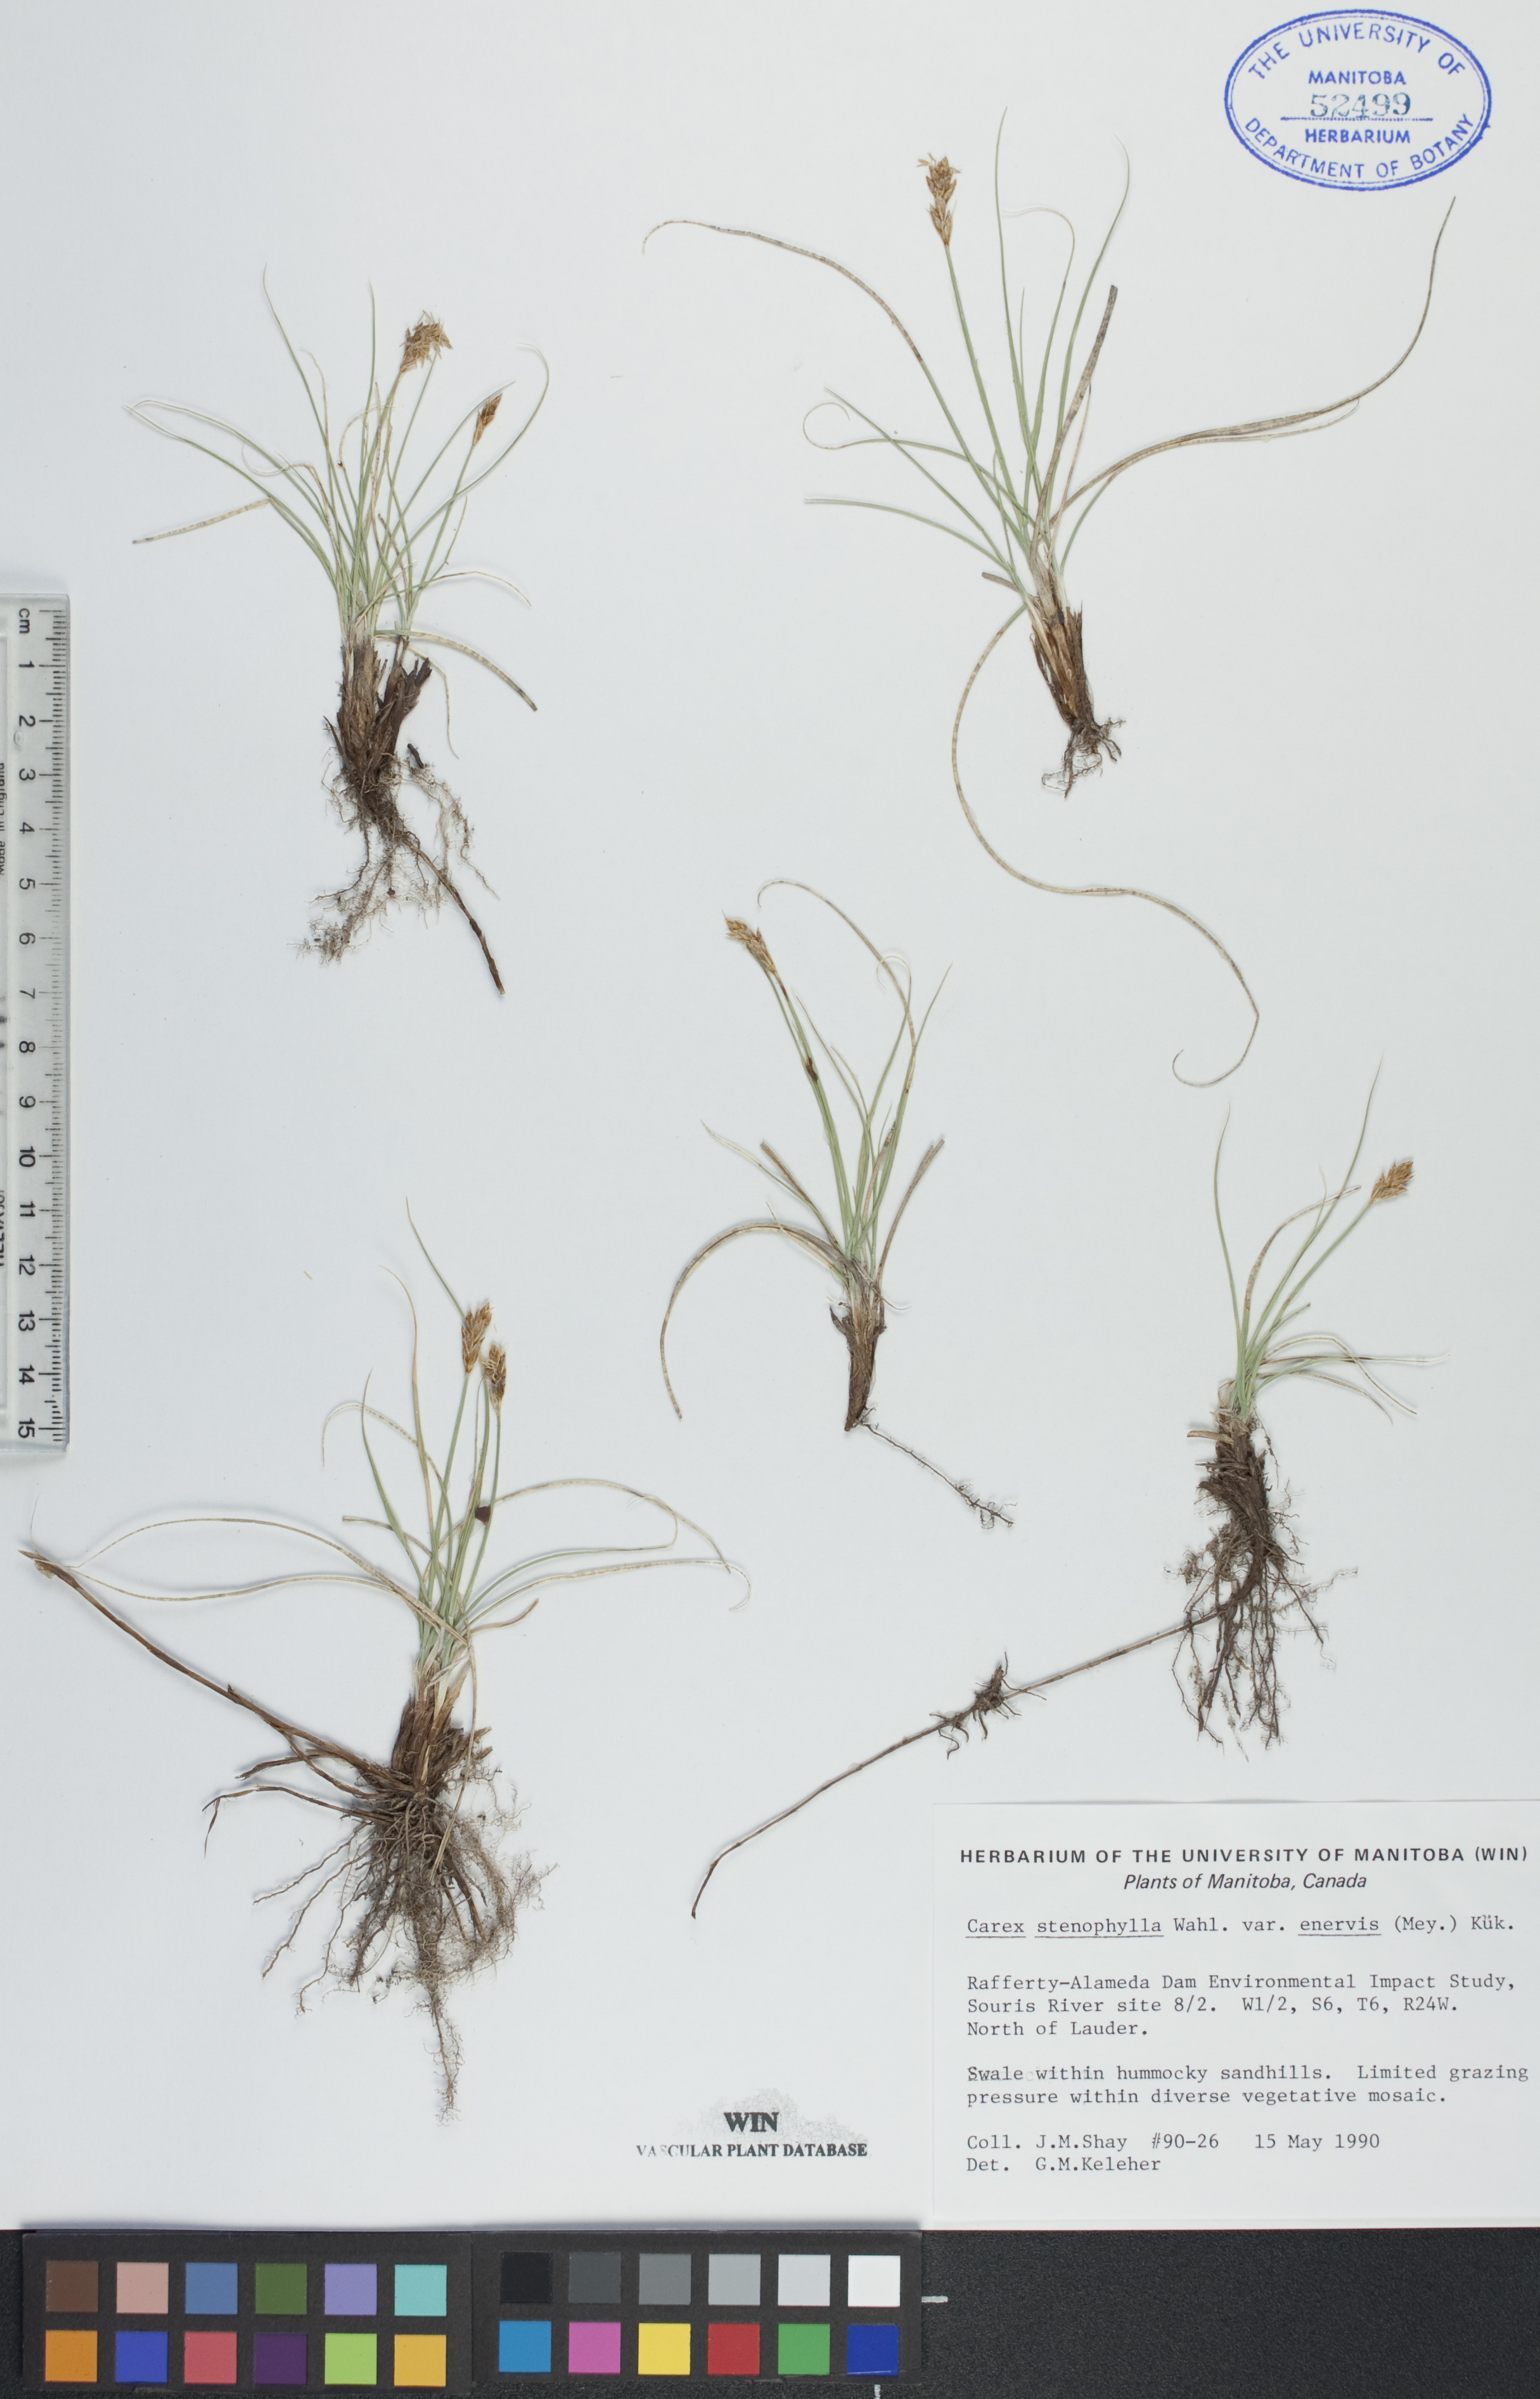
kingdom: Plantae
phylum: Tracheophyta
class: Liliopsida
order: Poales
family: Cyperaceae
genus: Carex
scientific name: Carex enervis
